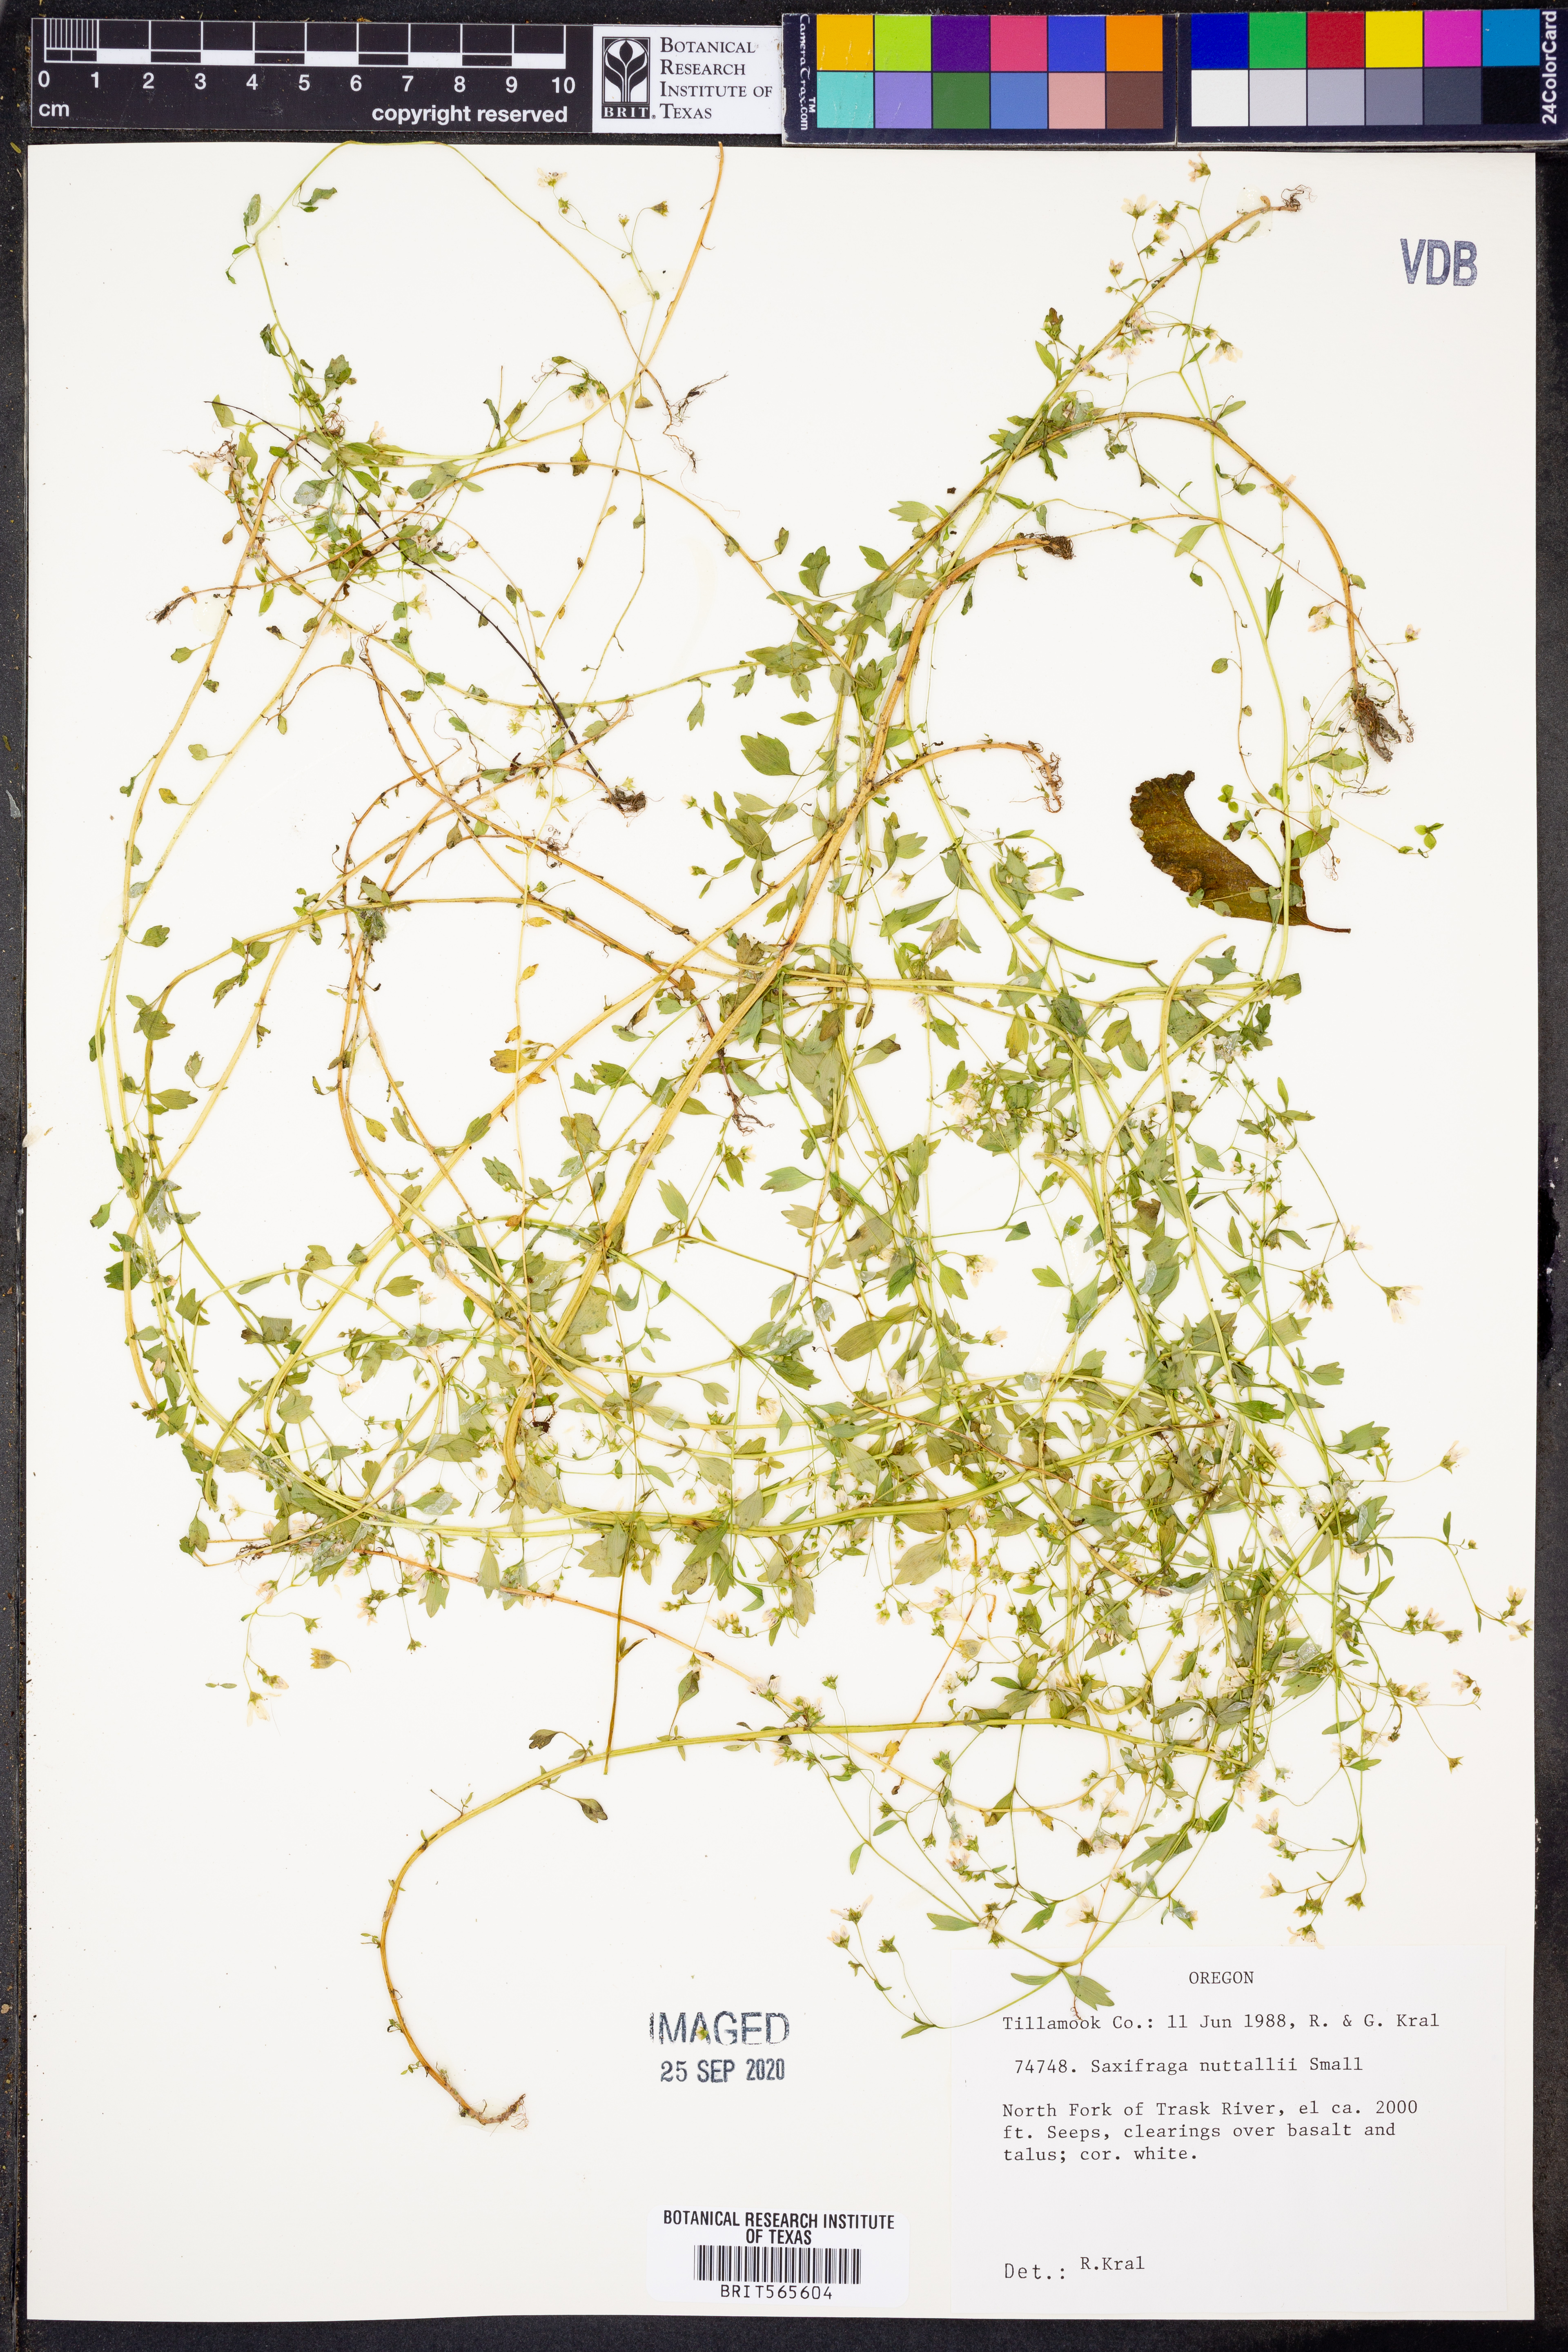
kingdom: Plantae
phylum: Tracheophyta
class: Magnoliopsida
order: Saxifragales
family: Saxifragaceae
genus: Cascadia
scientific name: Cascadia nuttallii
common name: Nuttall's saxifrage
